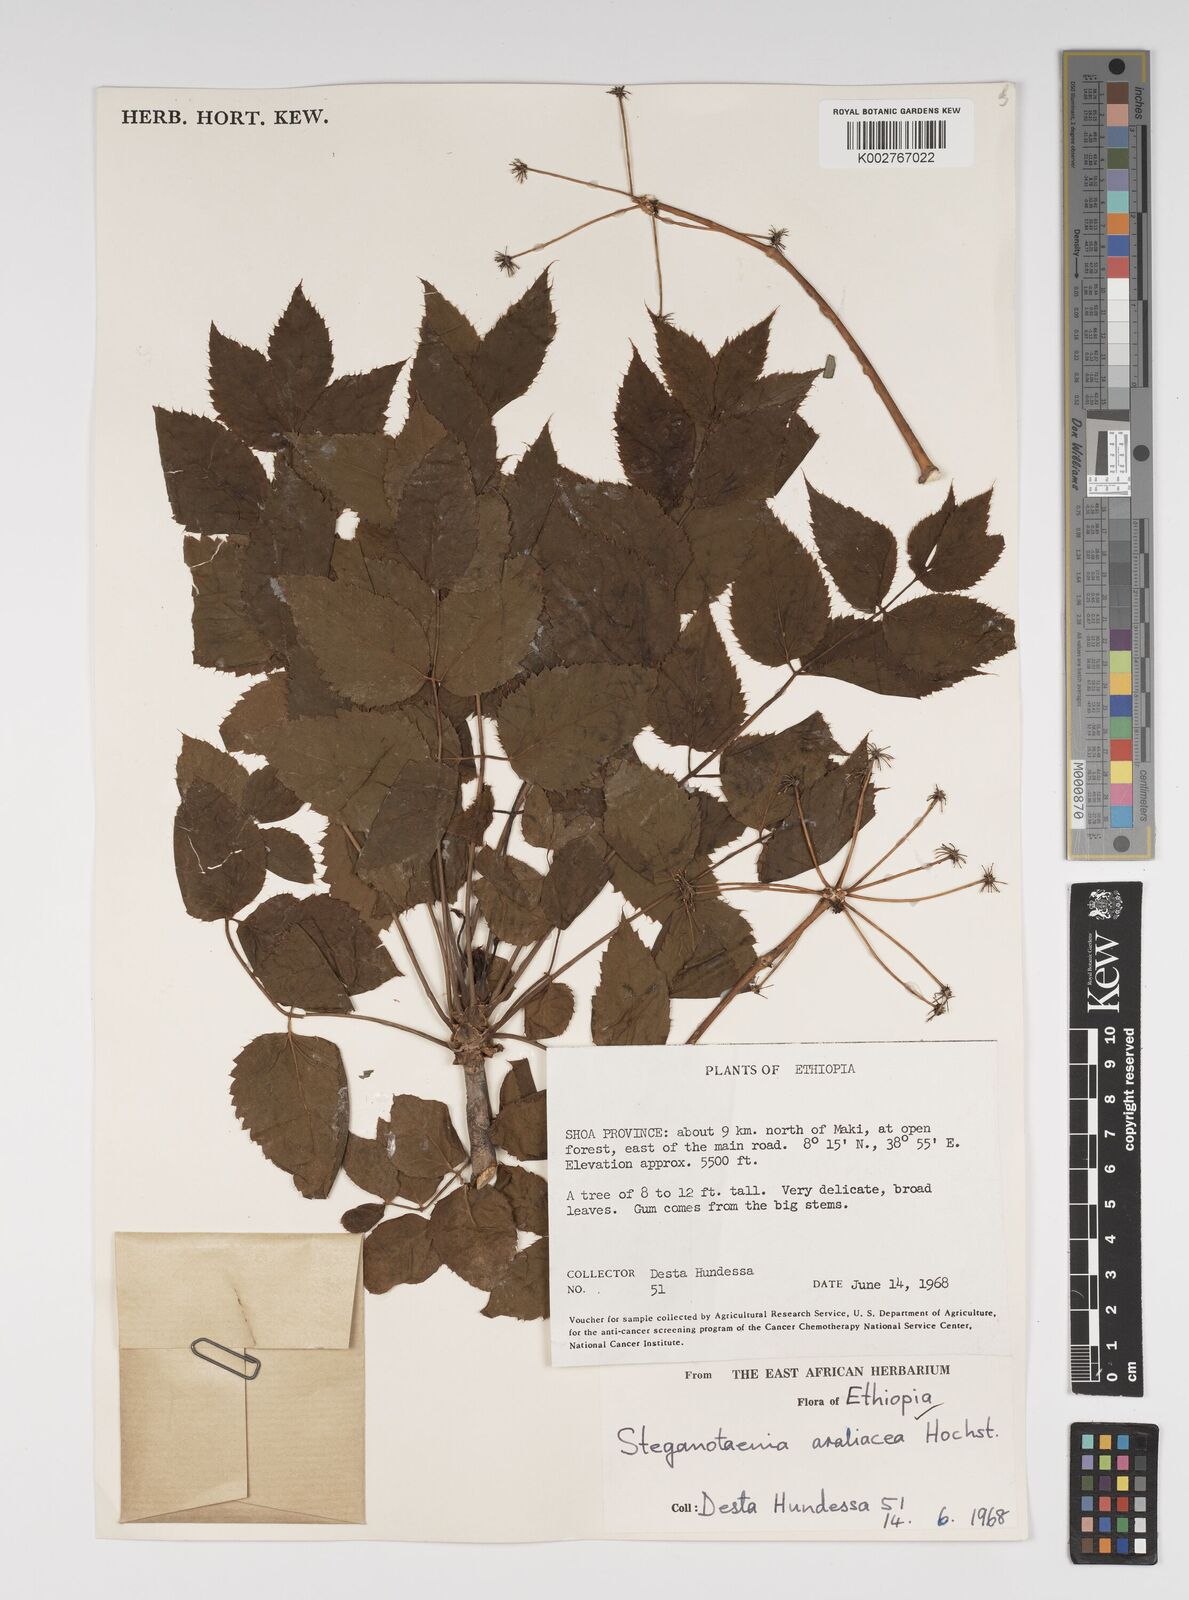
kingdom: Plantae
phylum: Tracheophyta
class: Magnoliopsida
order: Apiales
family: Apiaceae
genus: Steganotaenia
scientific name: Steganotaenia araliacea
